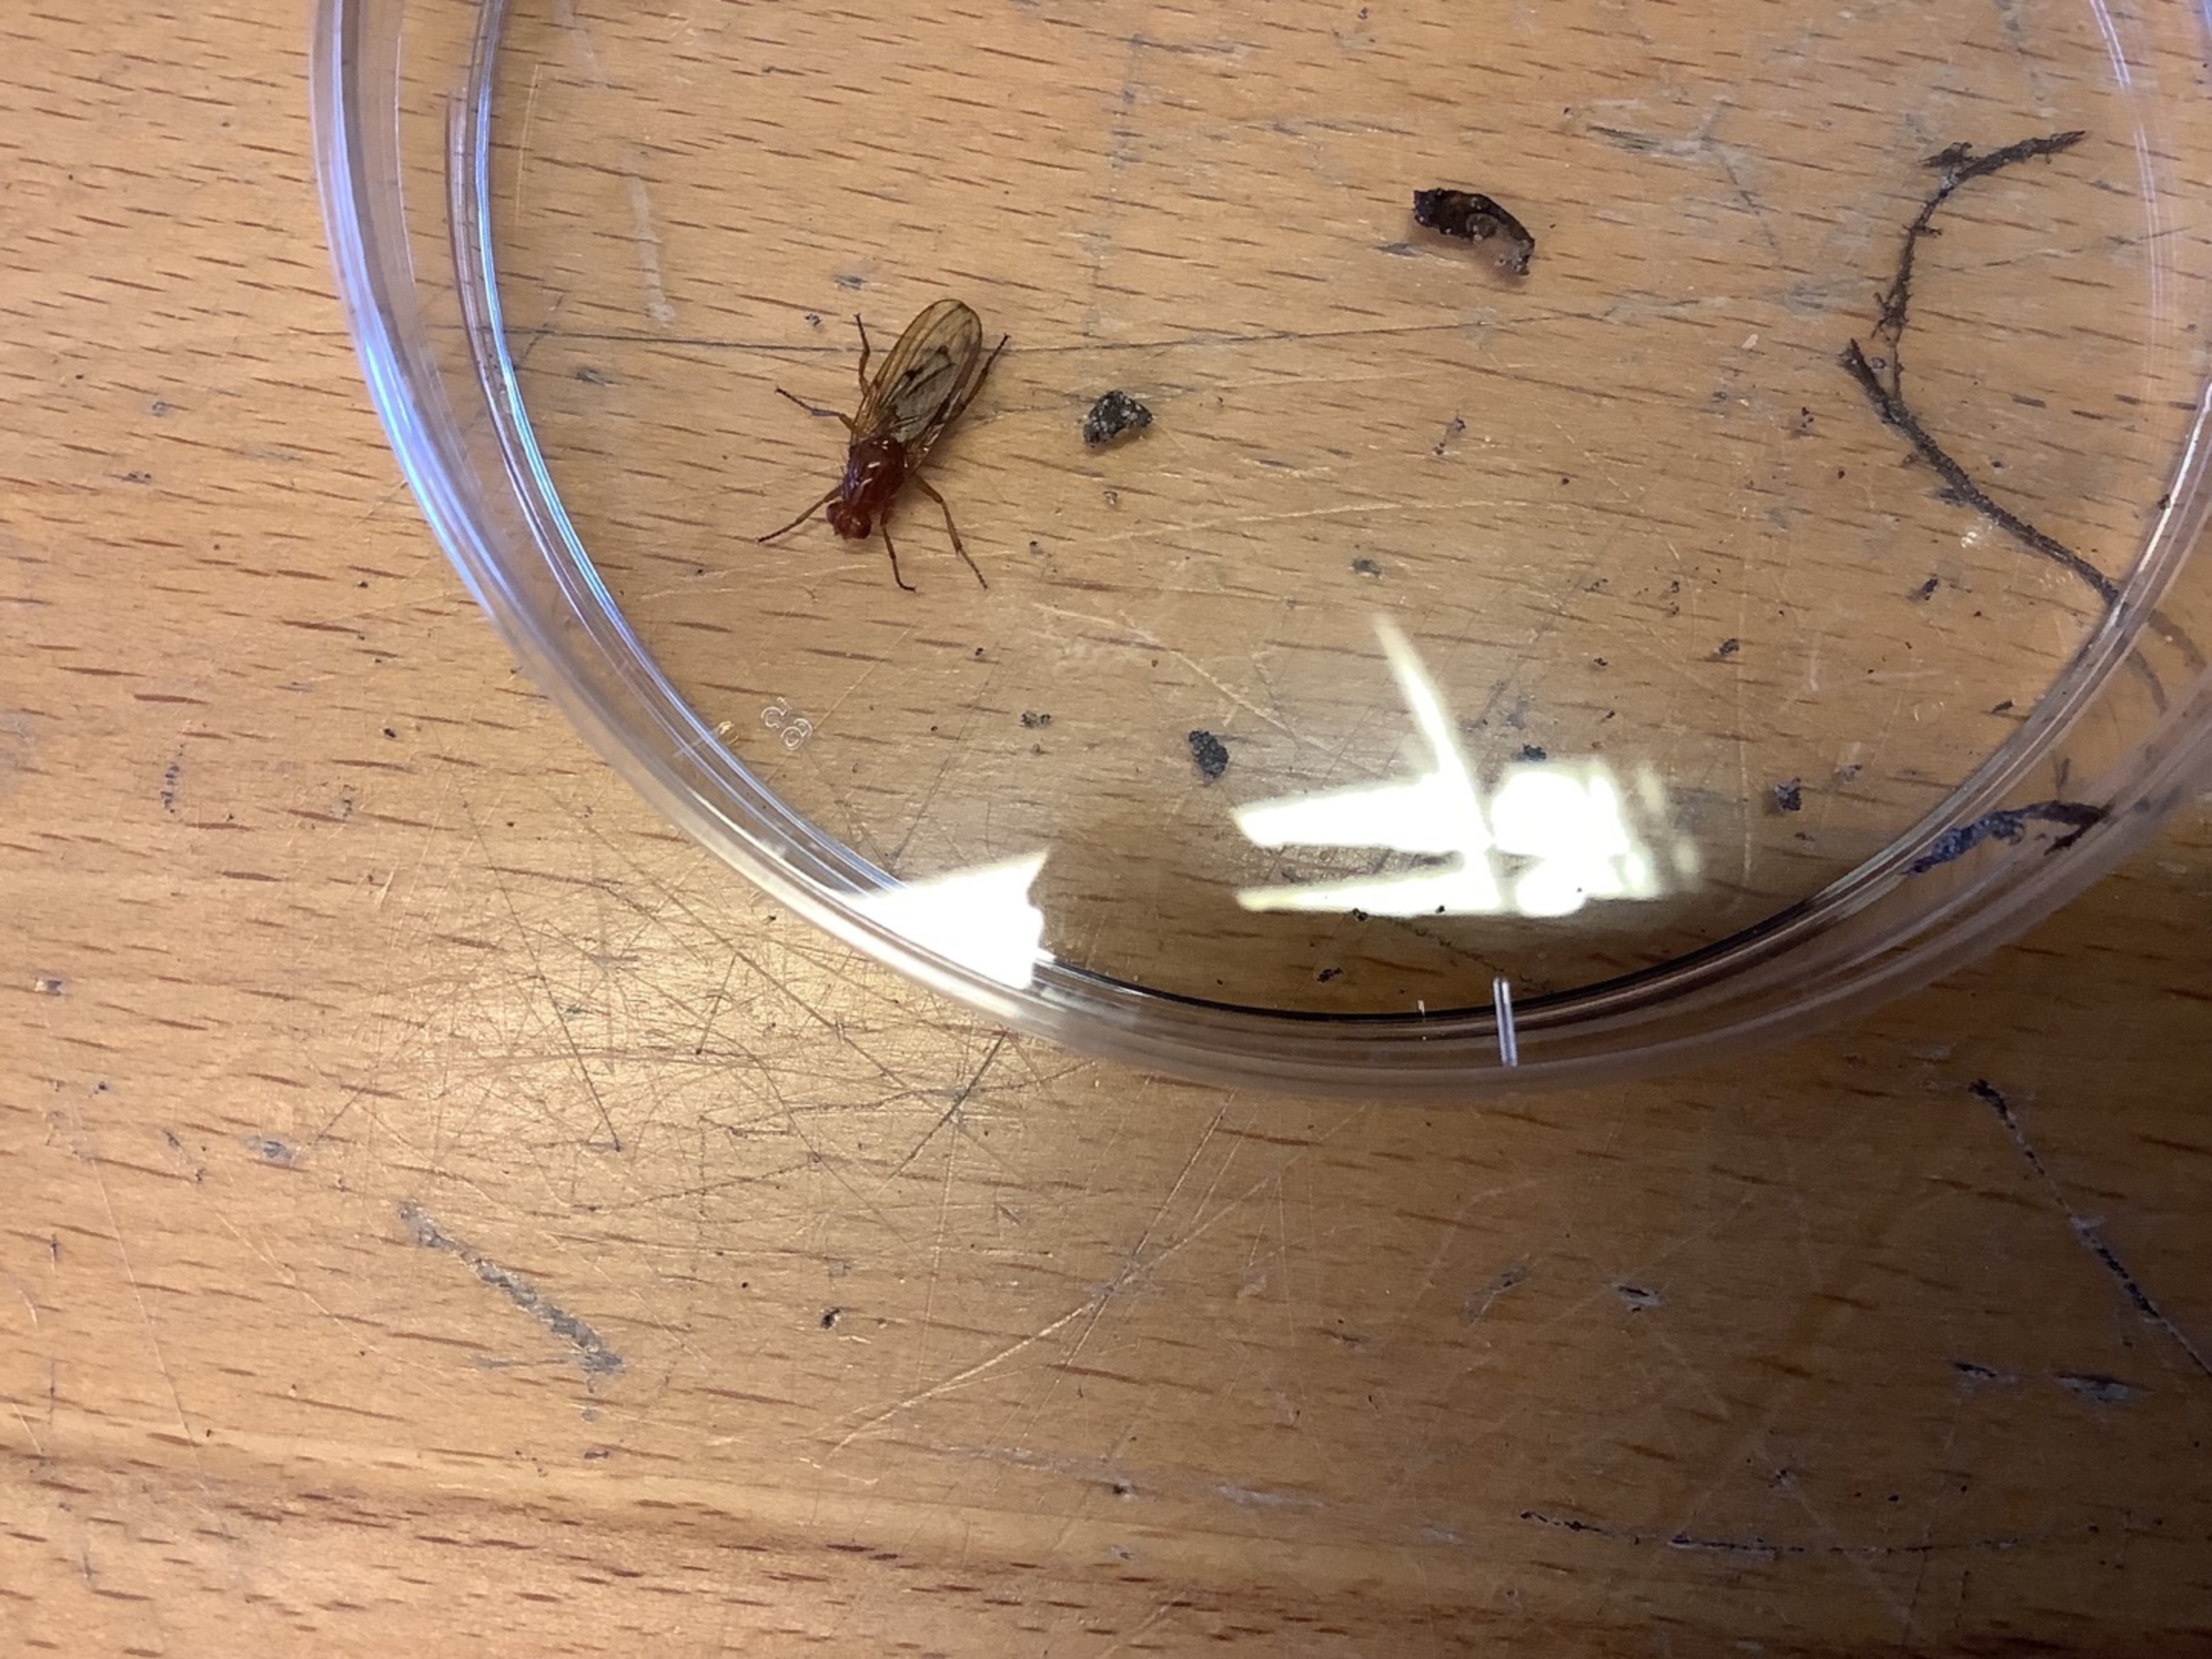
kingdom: Animalia
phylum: Arthropoda
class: Insecta
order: Diptera
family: Dryomyzidae
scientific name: Dryomyzidae
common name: Buskfluer
